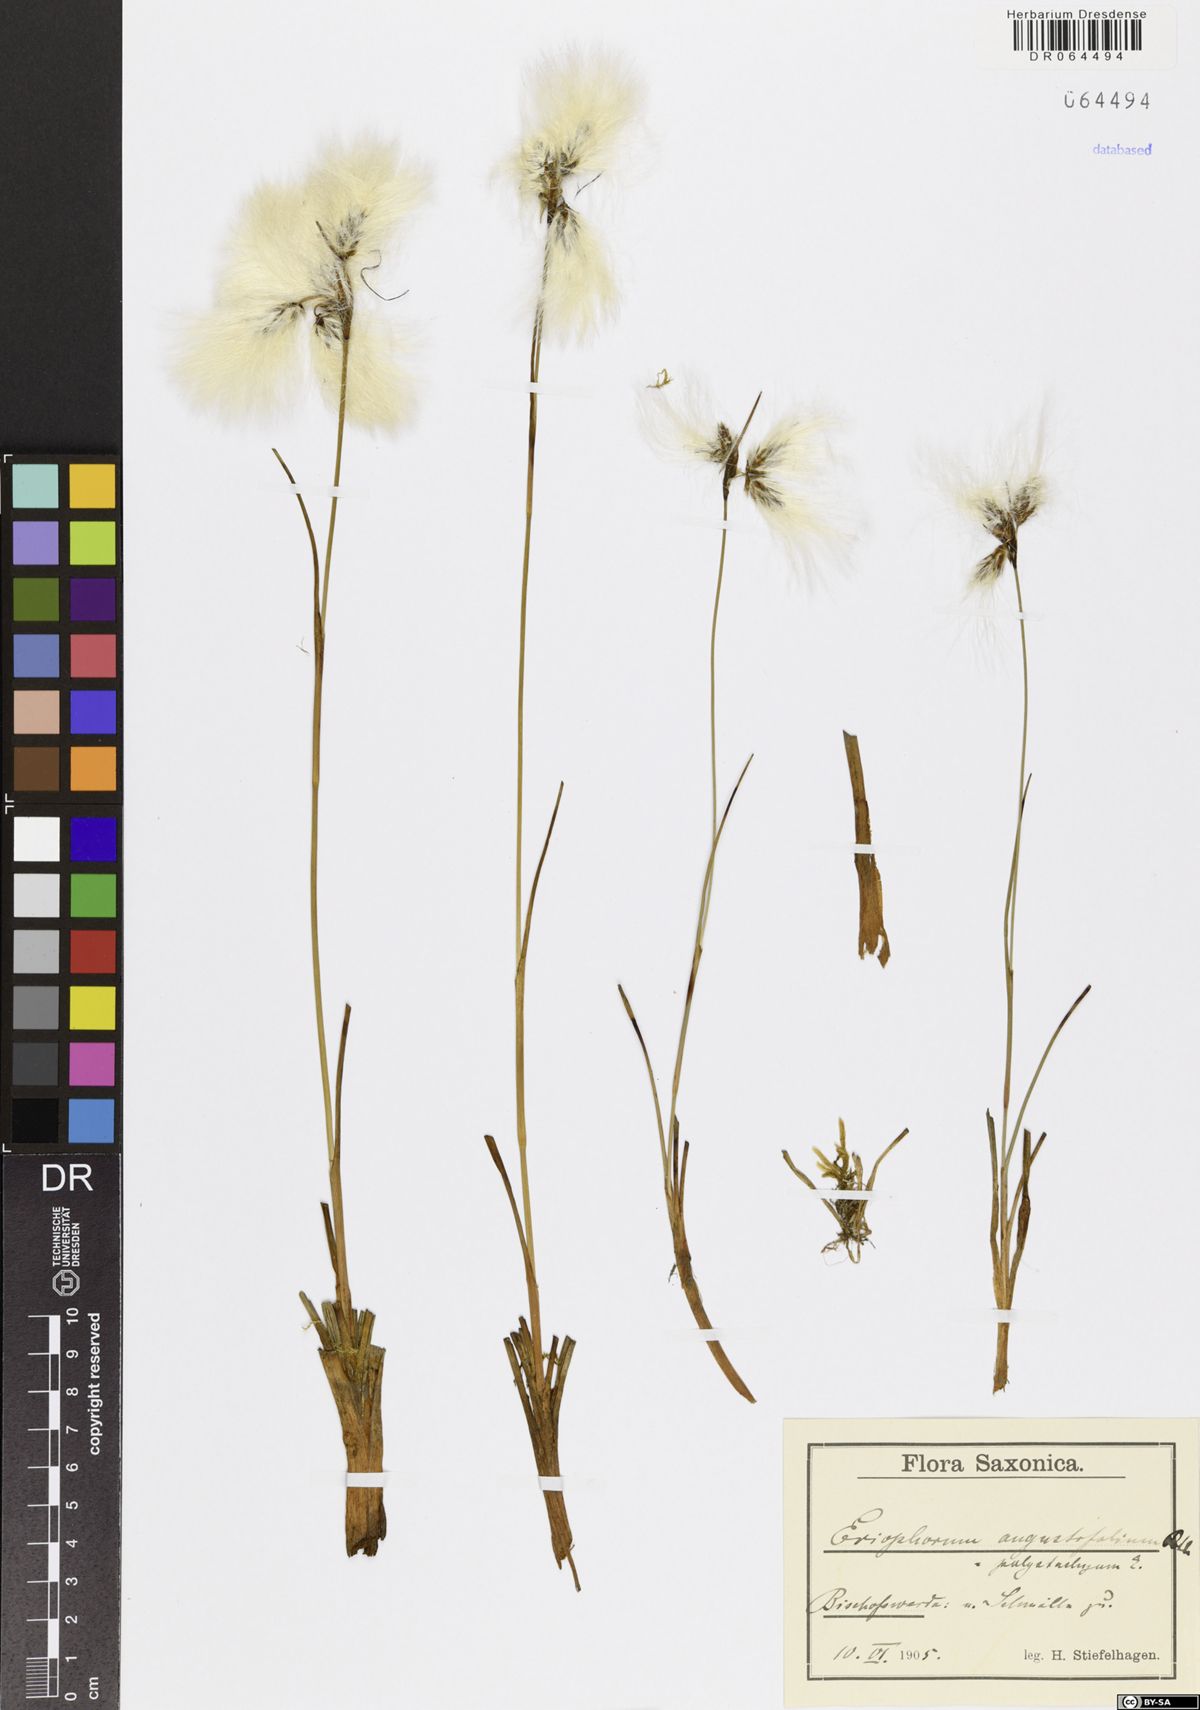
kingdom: Plantae
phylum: Tracheophyta
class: Liliopsida
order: Poales
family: Cyperaceae
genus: Eriophorum
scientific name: Eriophorum angustifolium
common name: Common cottongrass
